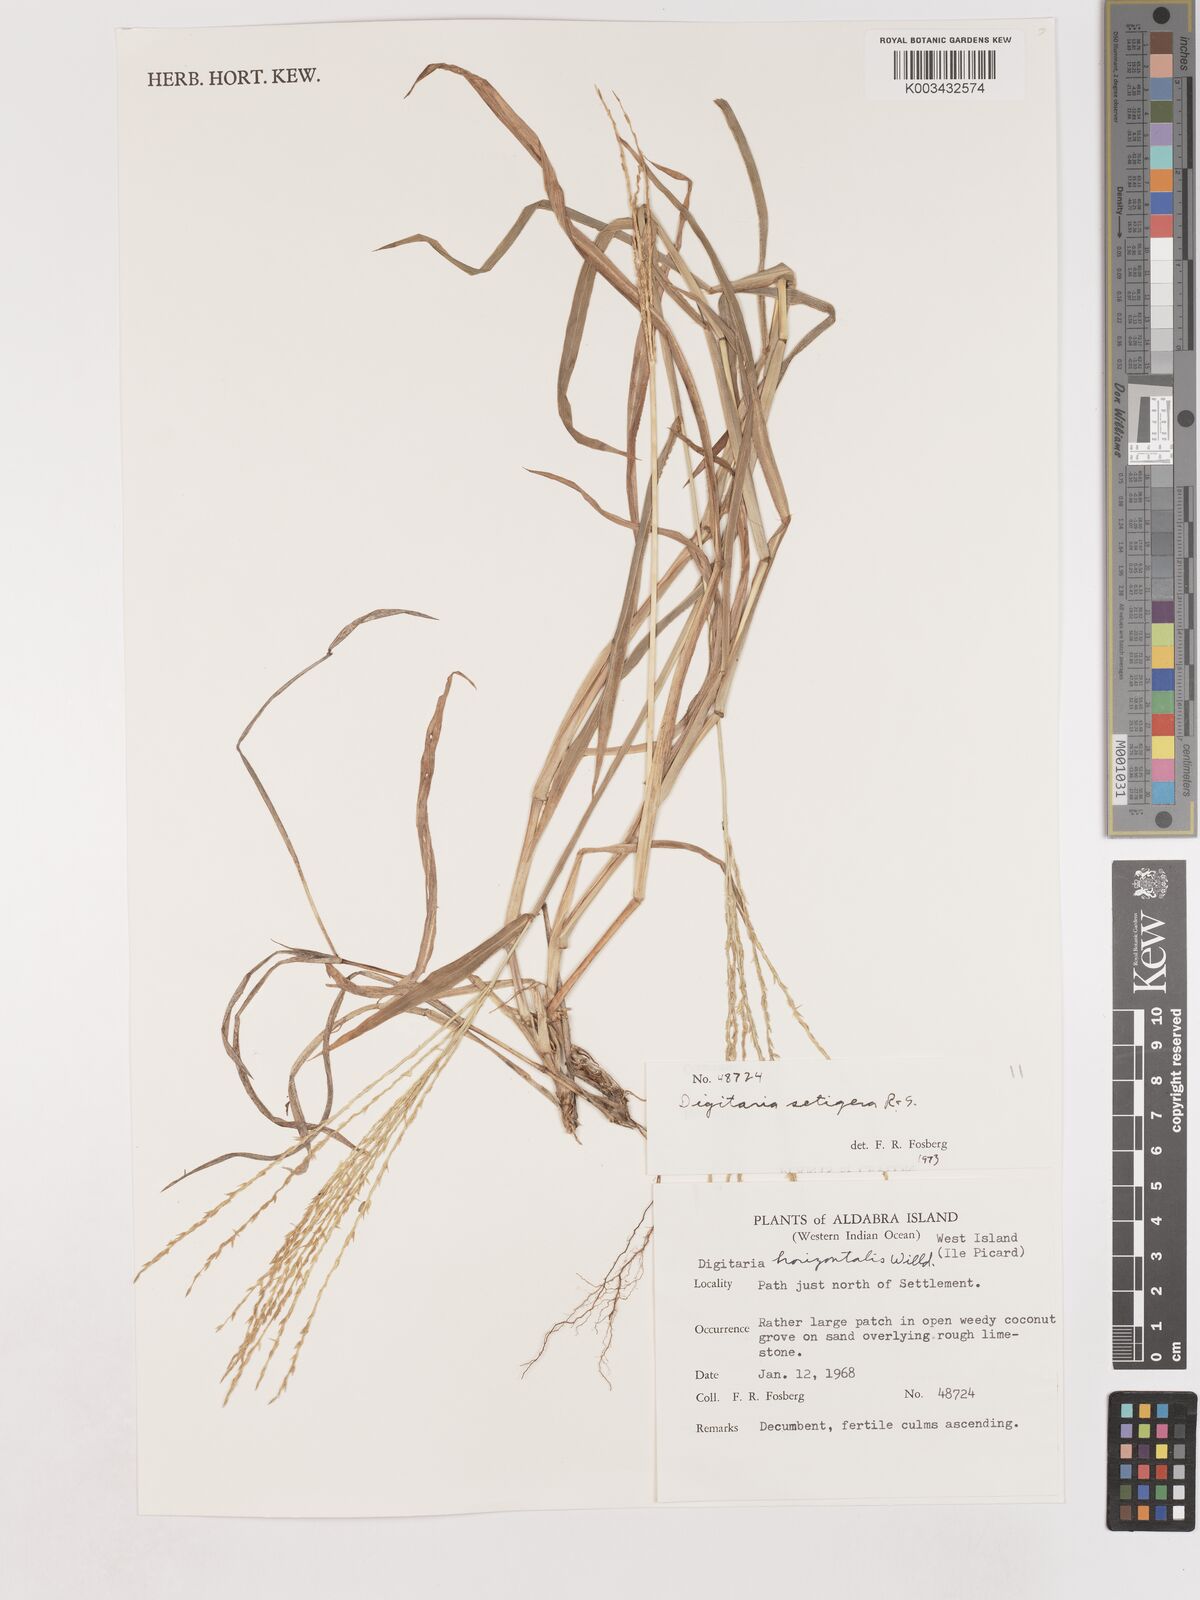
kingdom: Plantae
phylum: Tracheophyta
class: Liliopsida
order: Poales
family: Poaceae
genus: Digitaria
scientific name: Digitaria setigera
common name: East indian crabgrass
